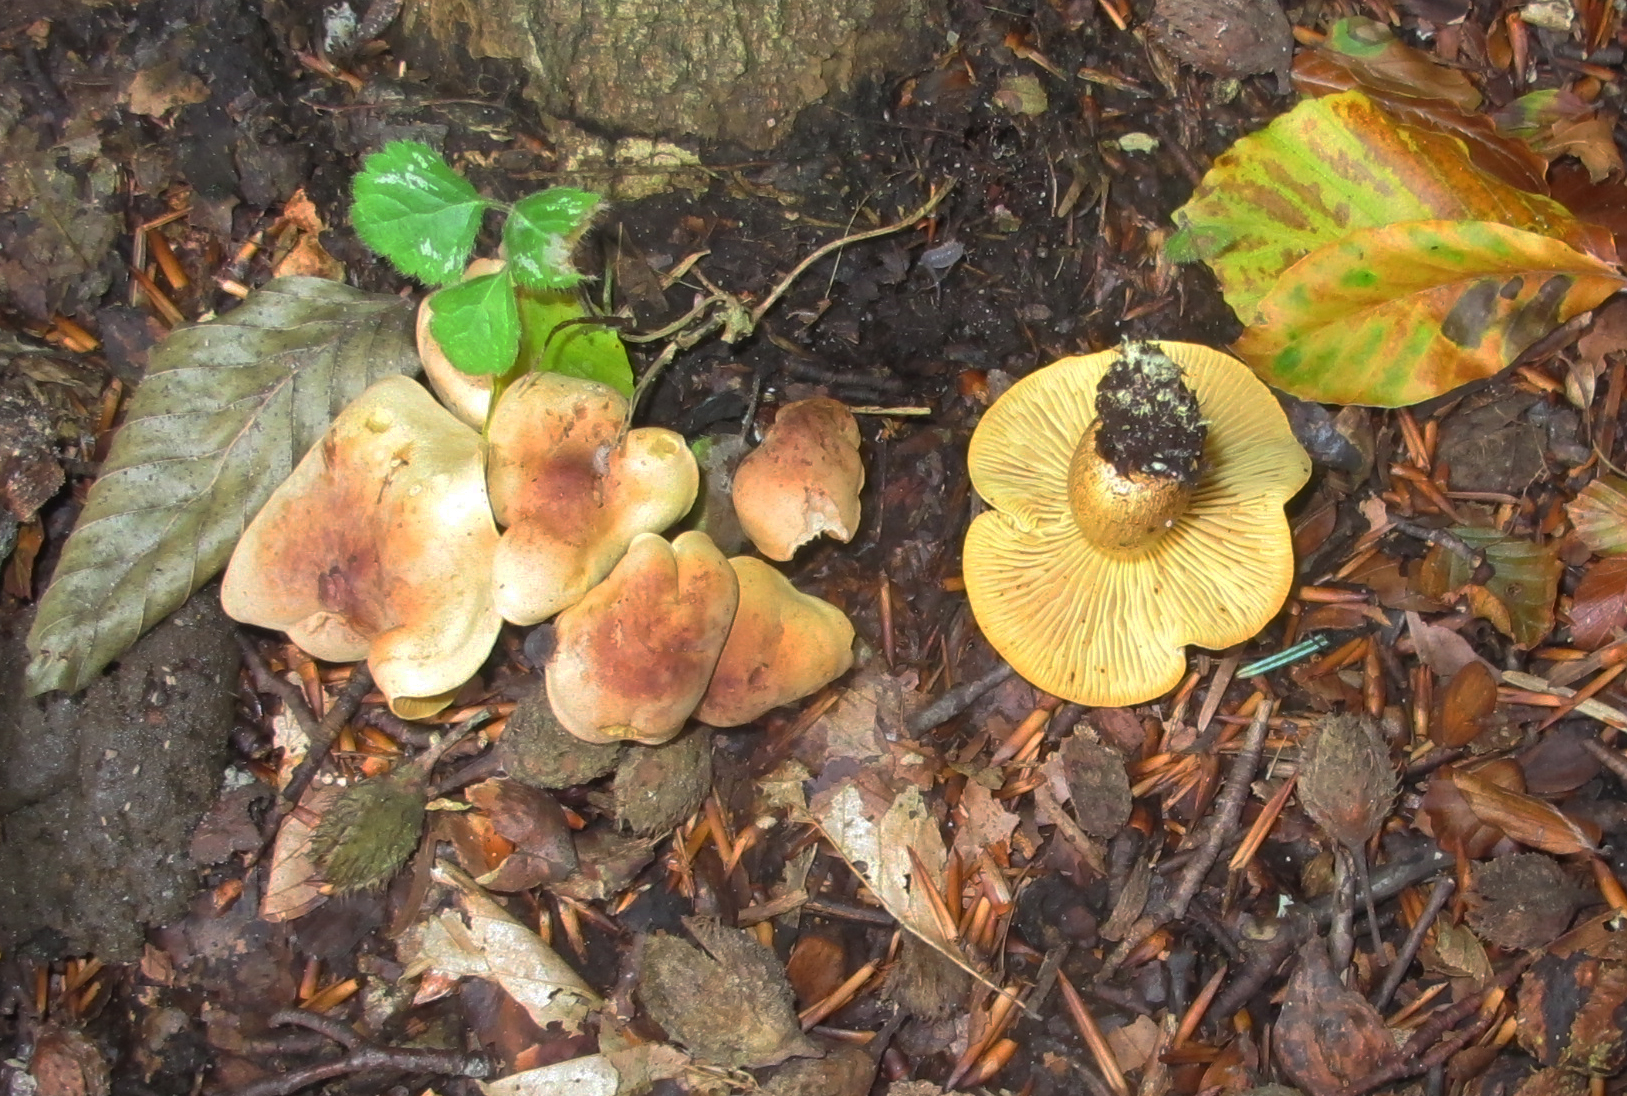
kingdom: Fungi
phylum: Basidiomycota
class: Agaricomycetes
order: Agaricales
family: Tricholomataceae
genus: Tricholoma
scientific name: Tricholoma sulphureum
